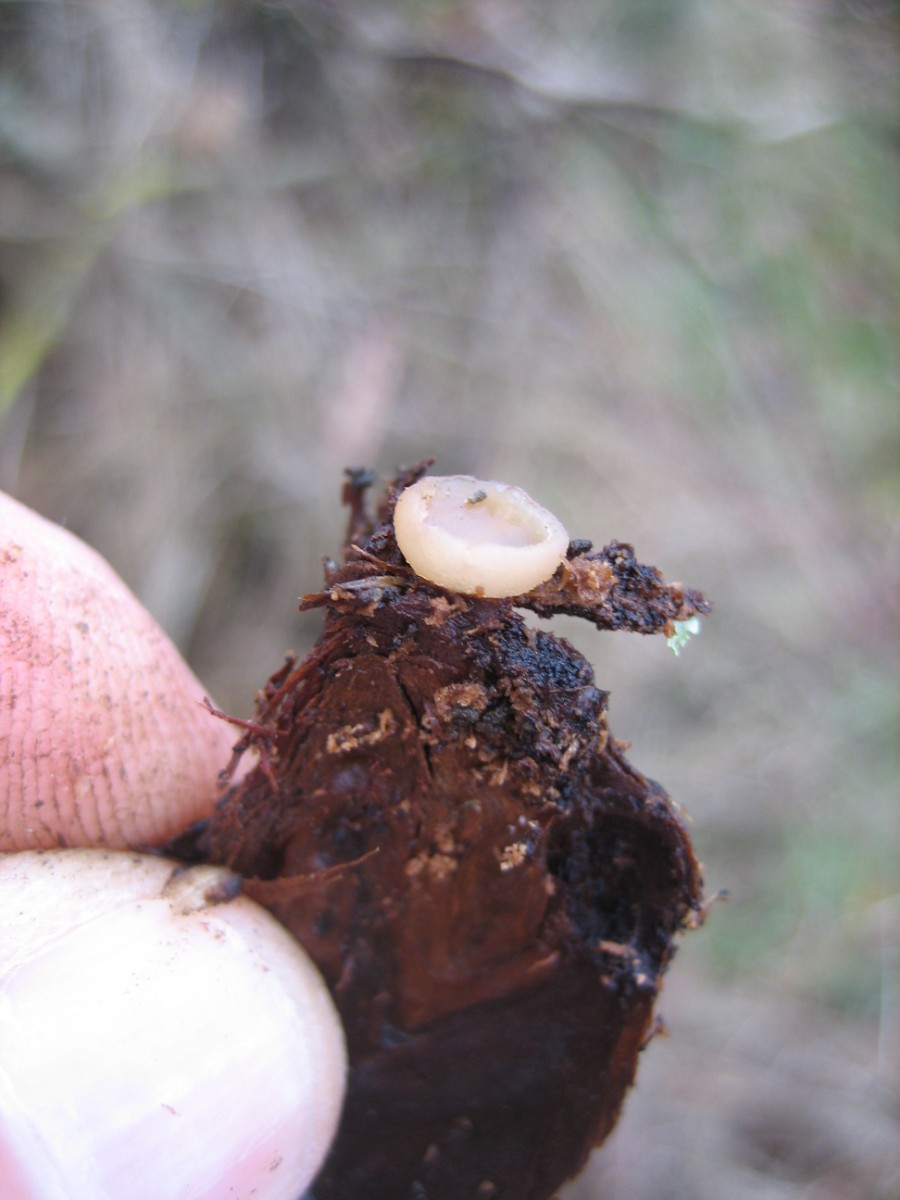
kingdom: Fungi
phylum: Ascomycota
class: Pezizomycetes
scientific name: Pezizomycetes
